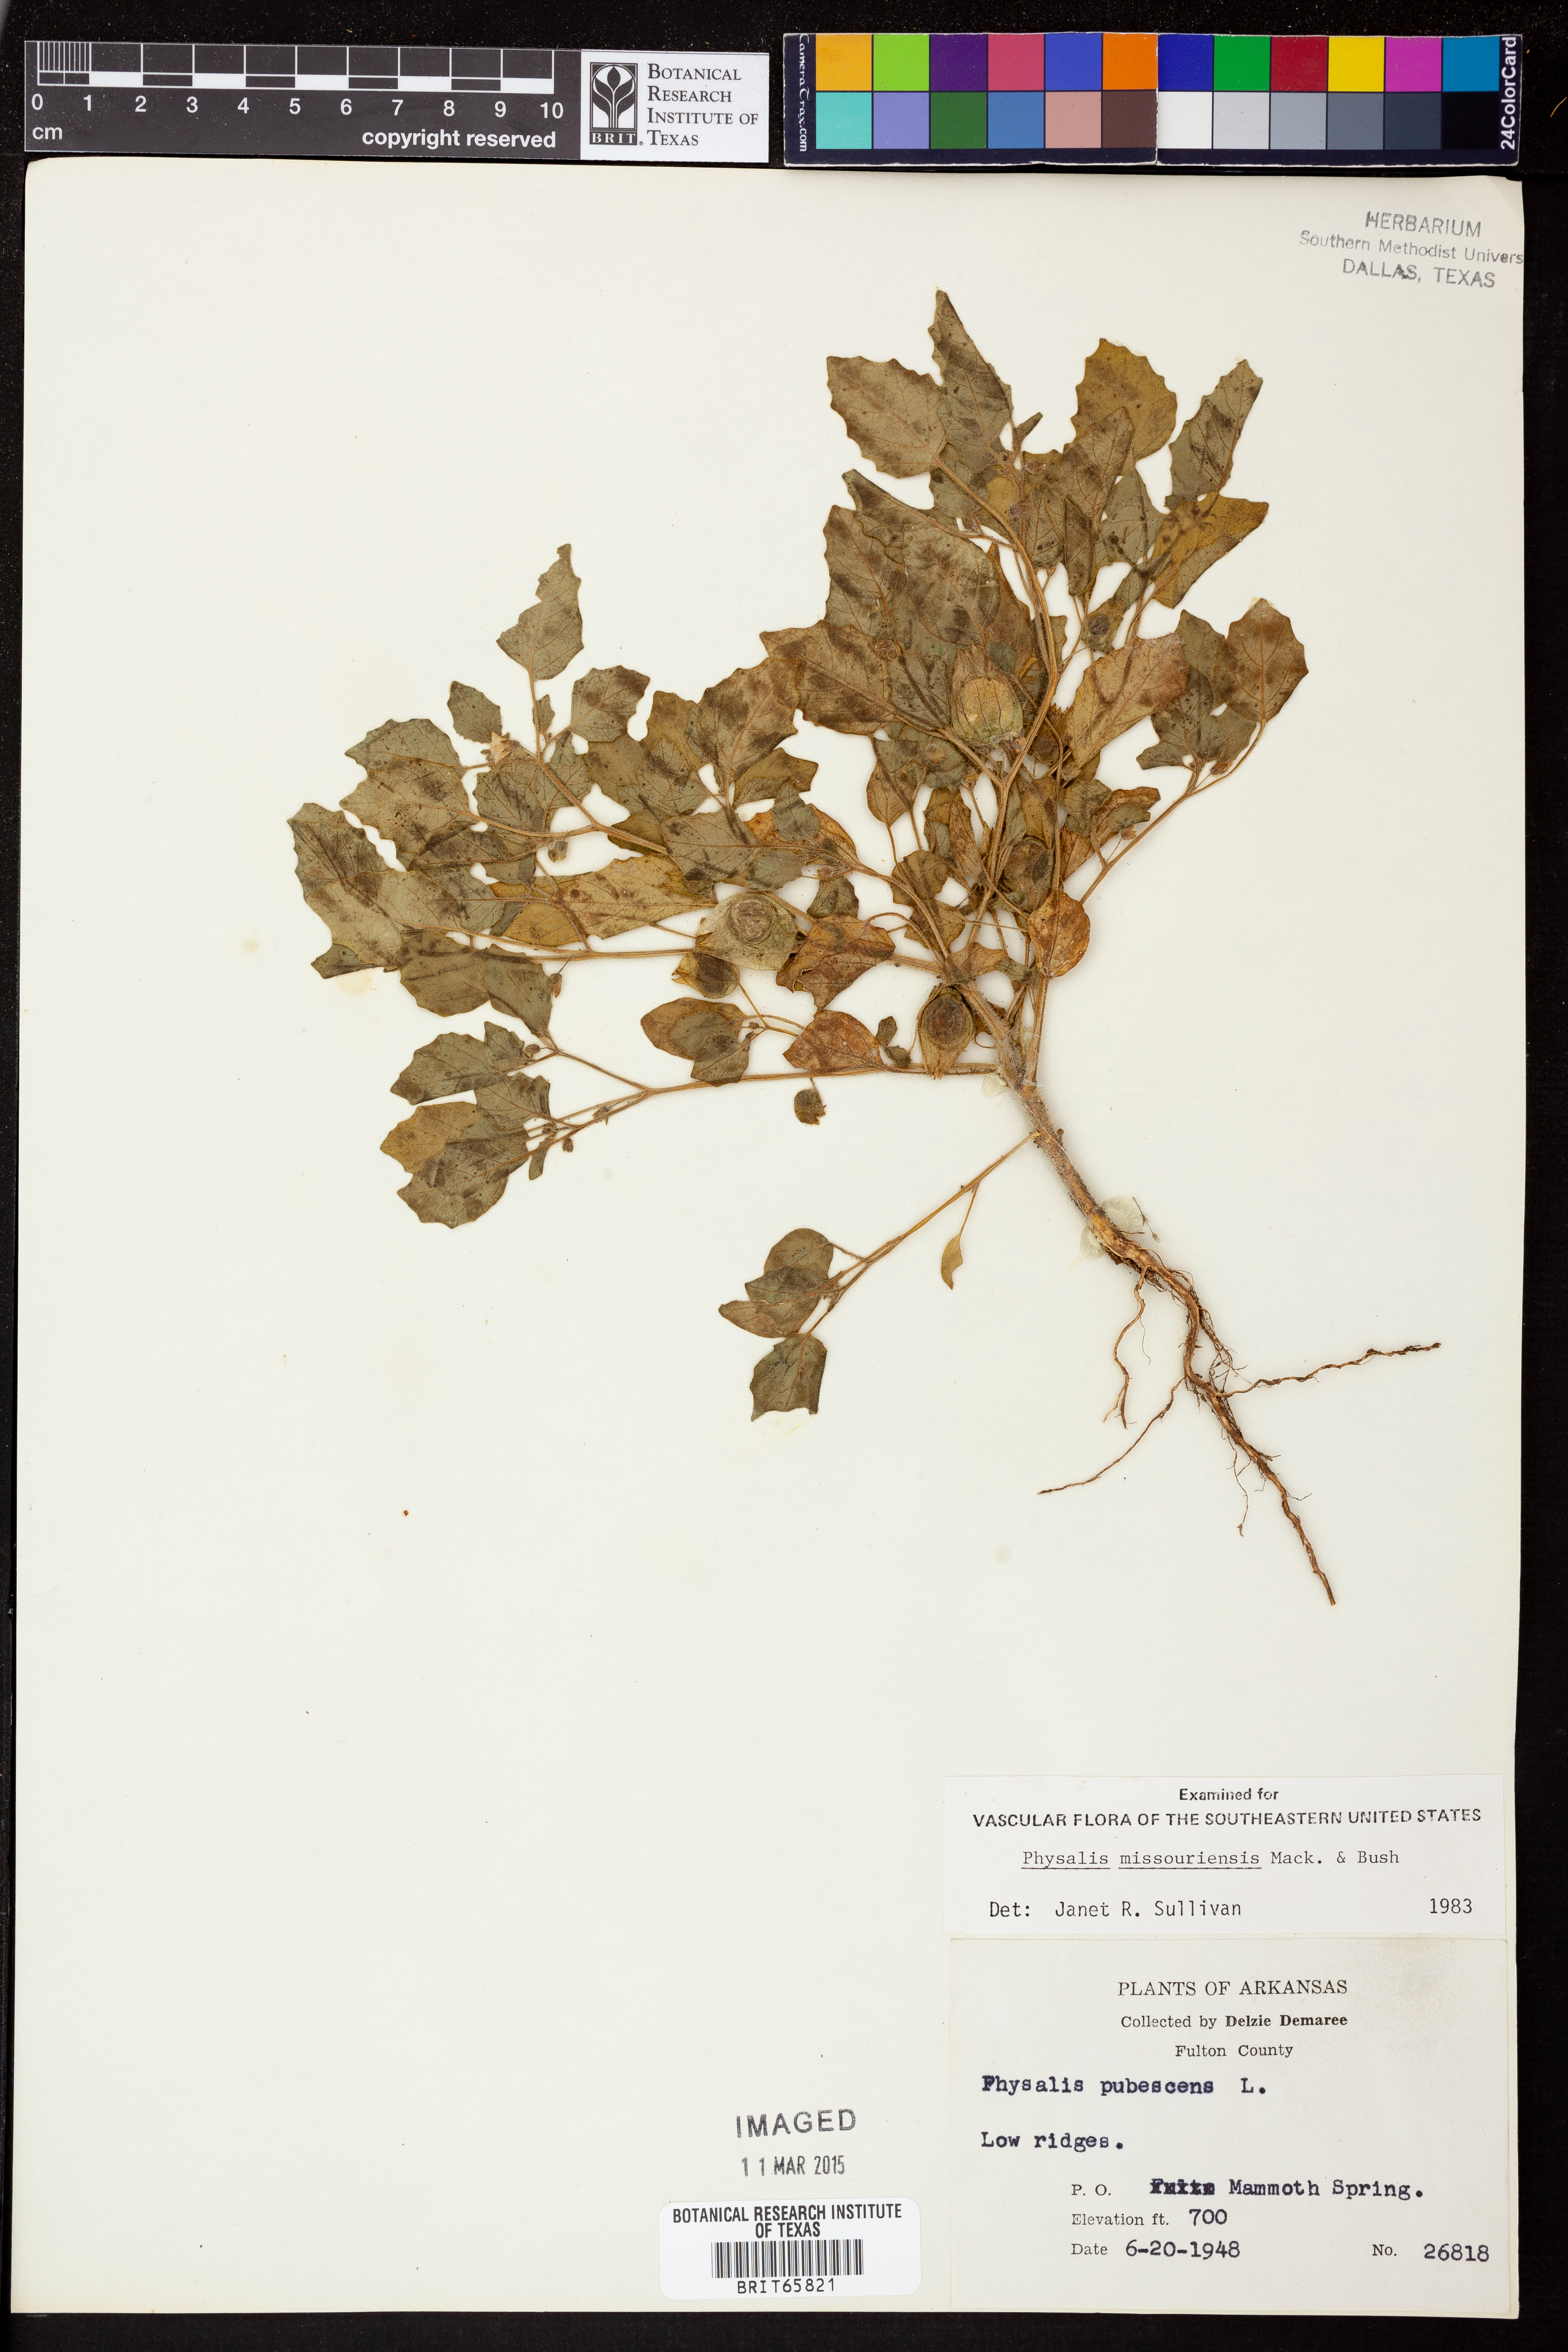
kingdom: Plantae
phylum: Tracheophyta
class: Magnoliopsida
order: Solanales
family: Solanaceae
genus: Physalis
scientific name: Physalis missouriensis
